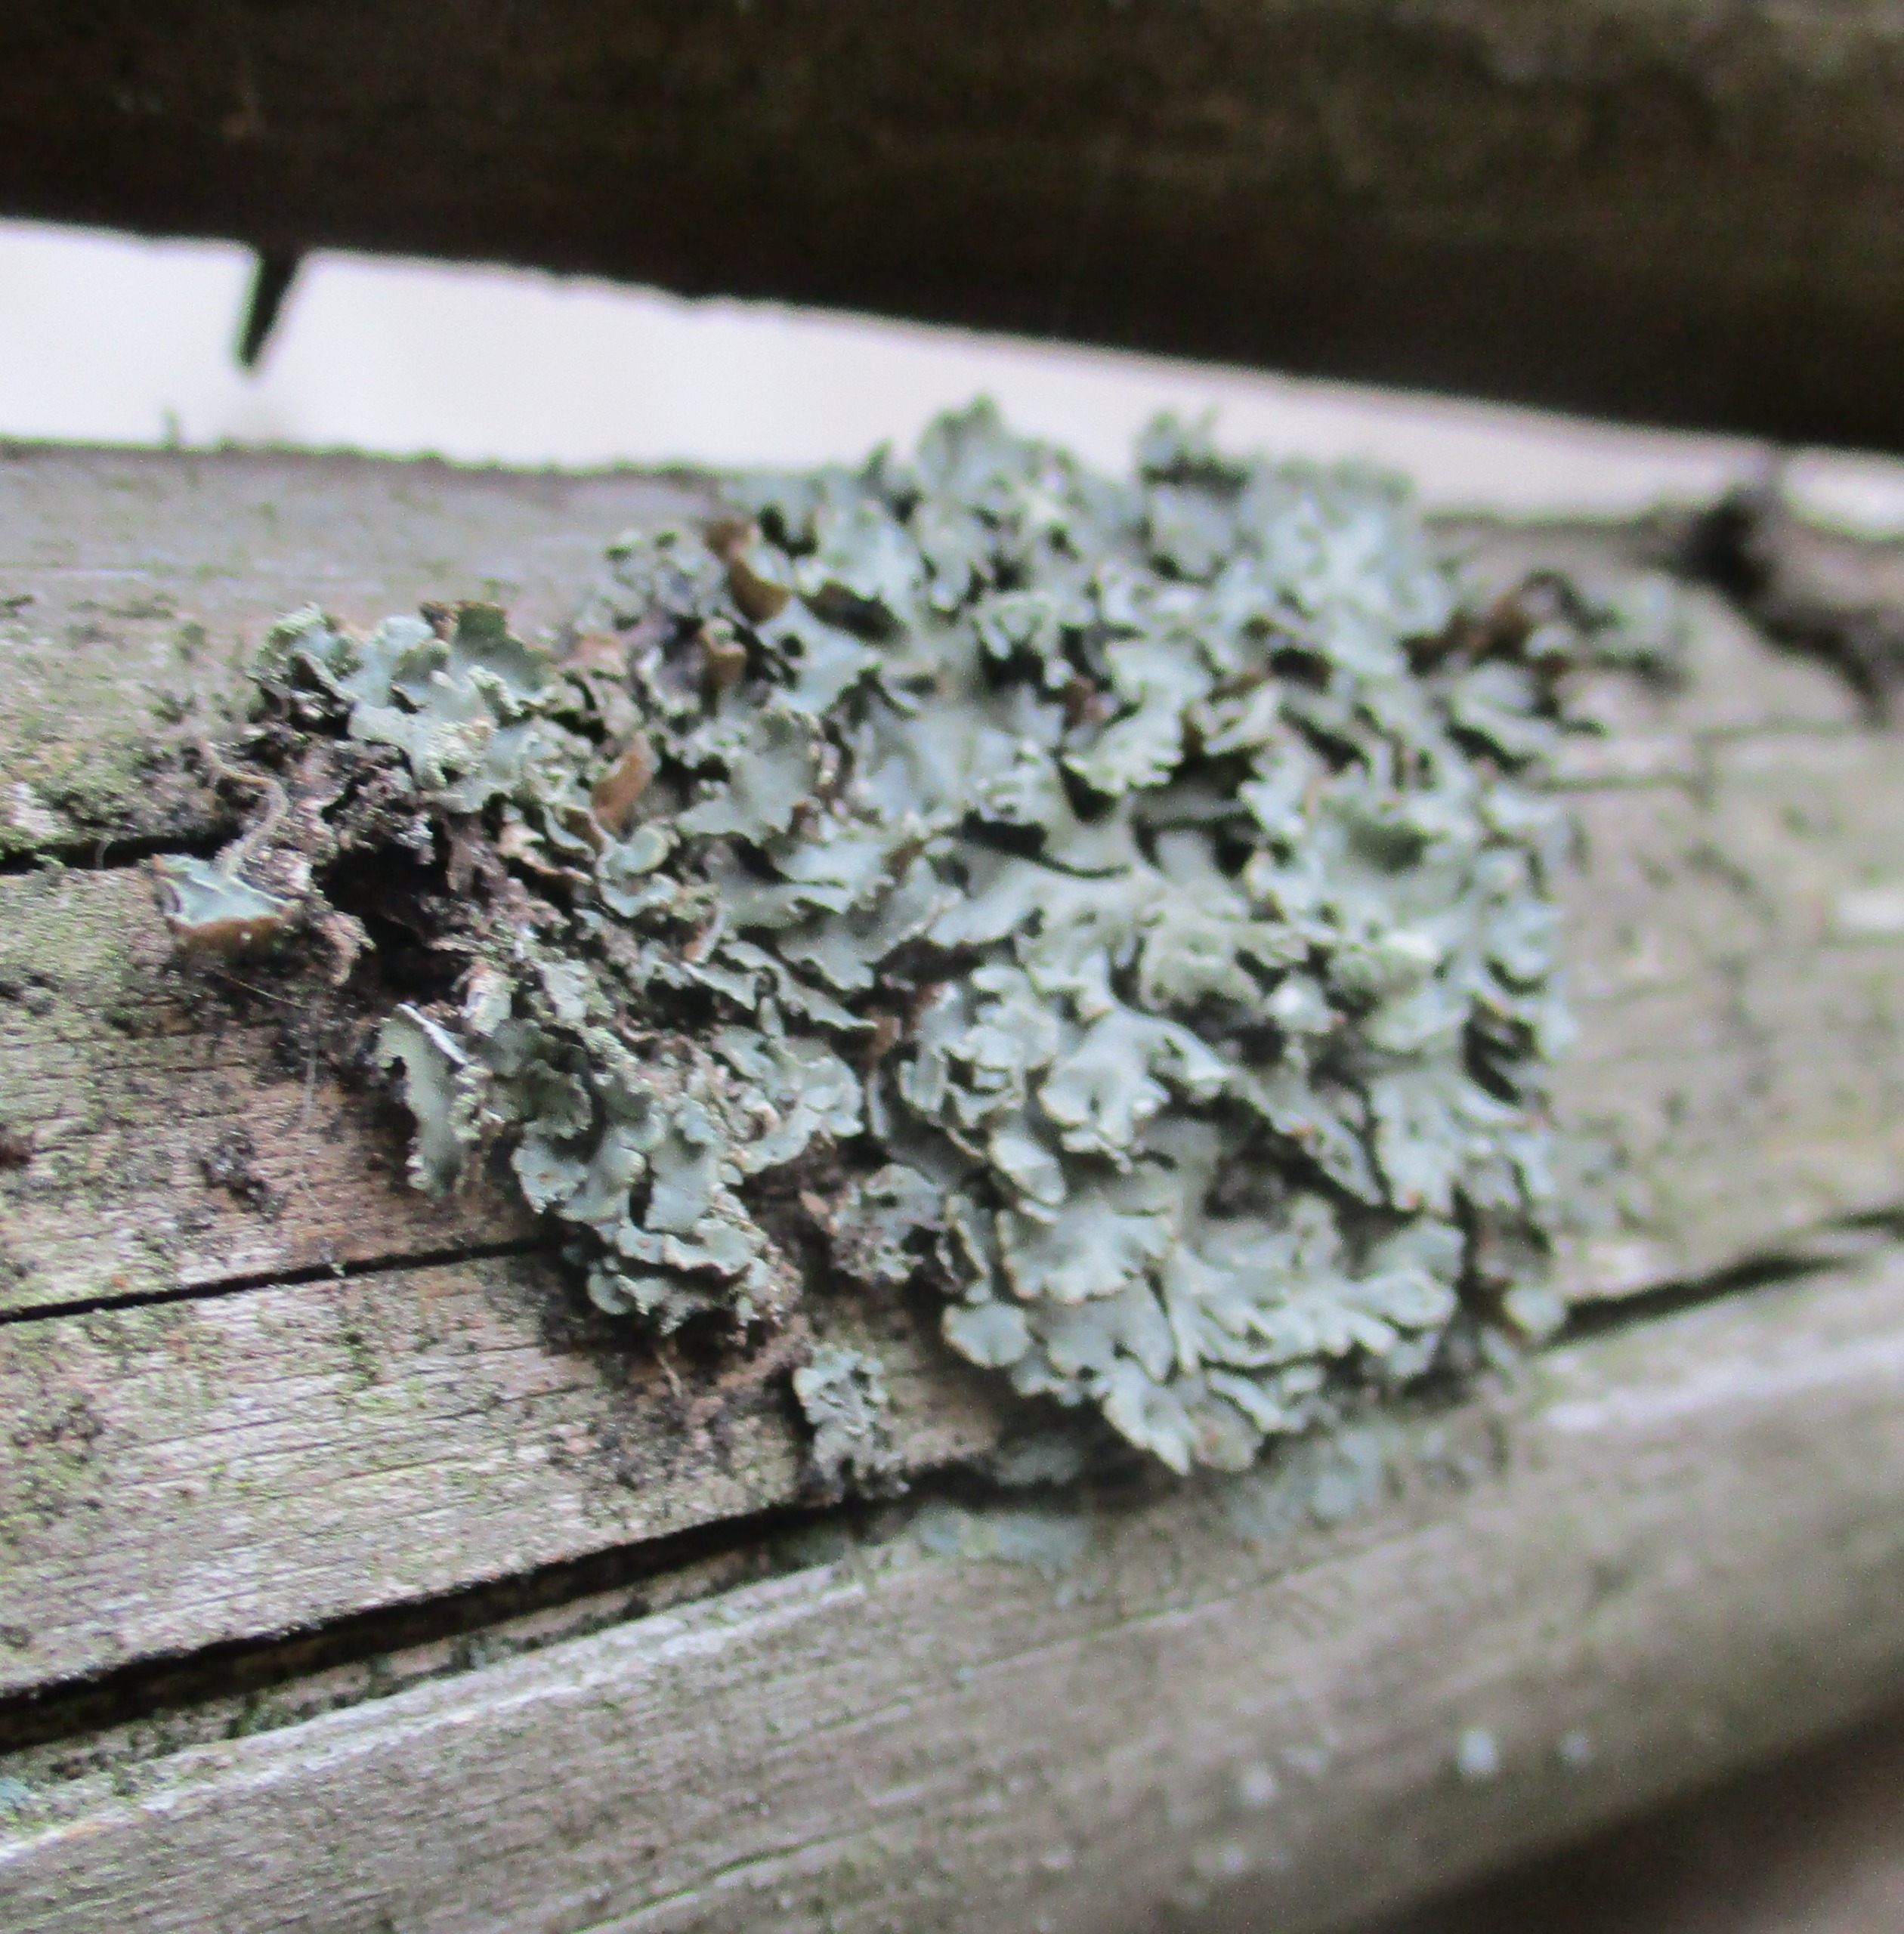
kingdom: Fungi
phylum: Ascomycota
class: Lecanoromycetes
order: Lecanorales
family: Parmeliaceae
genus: Hypogymnia
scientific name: Hypogymnia physodes
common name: Almindelig kvistlav
